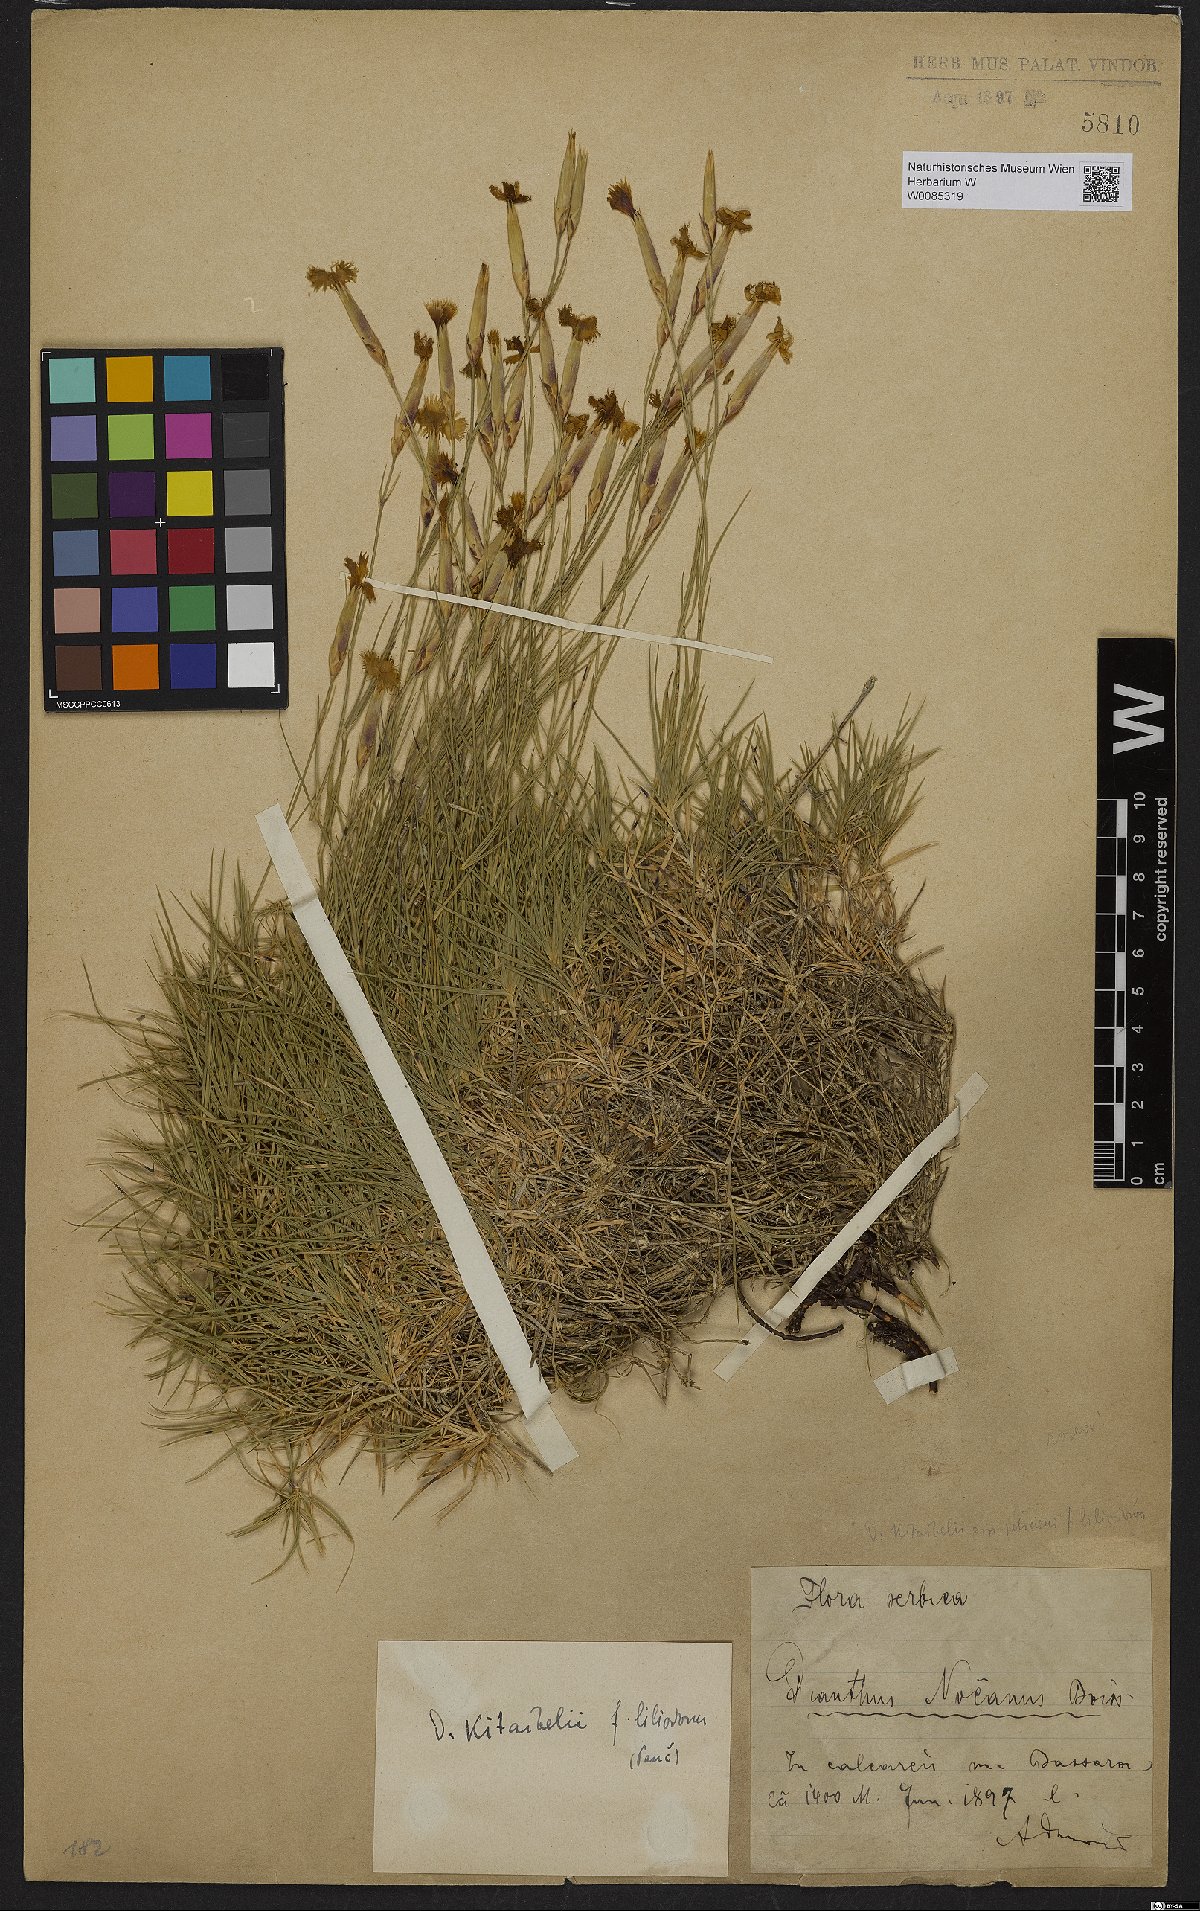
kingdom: Plantae
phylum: Tracheophyta
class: Magnoliopsida
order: Caryophyllales
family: Caryophyllaceae
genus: Dianthus
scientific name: Dianthus petraeus
